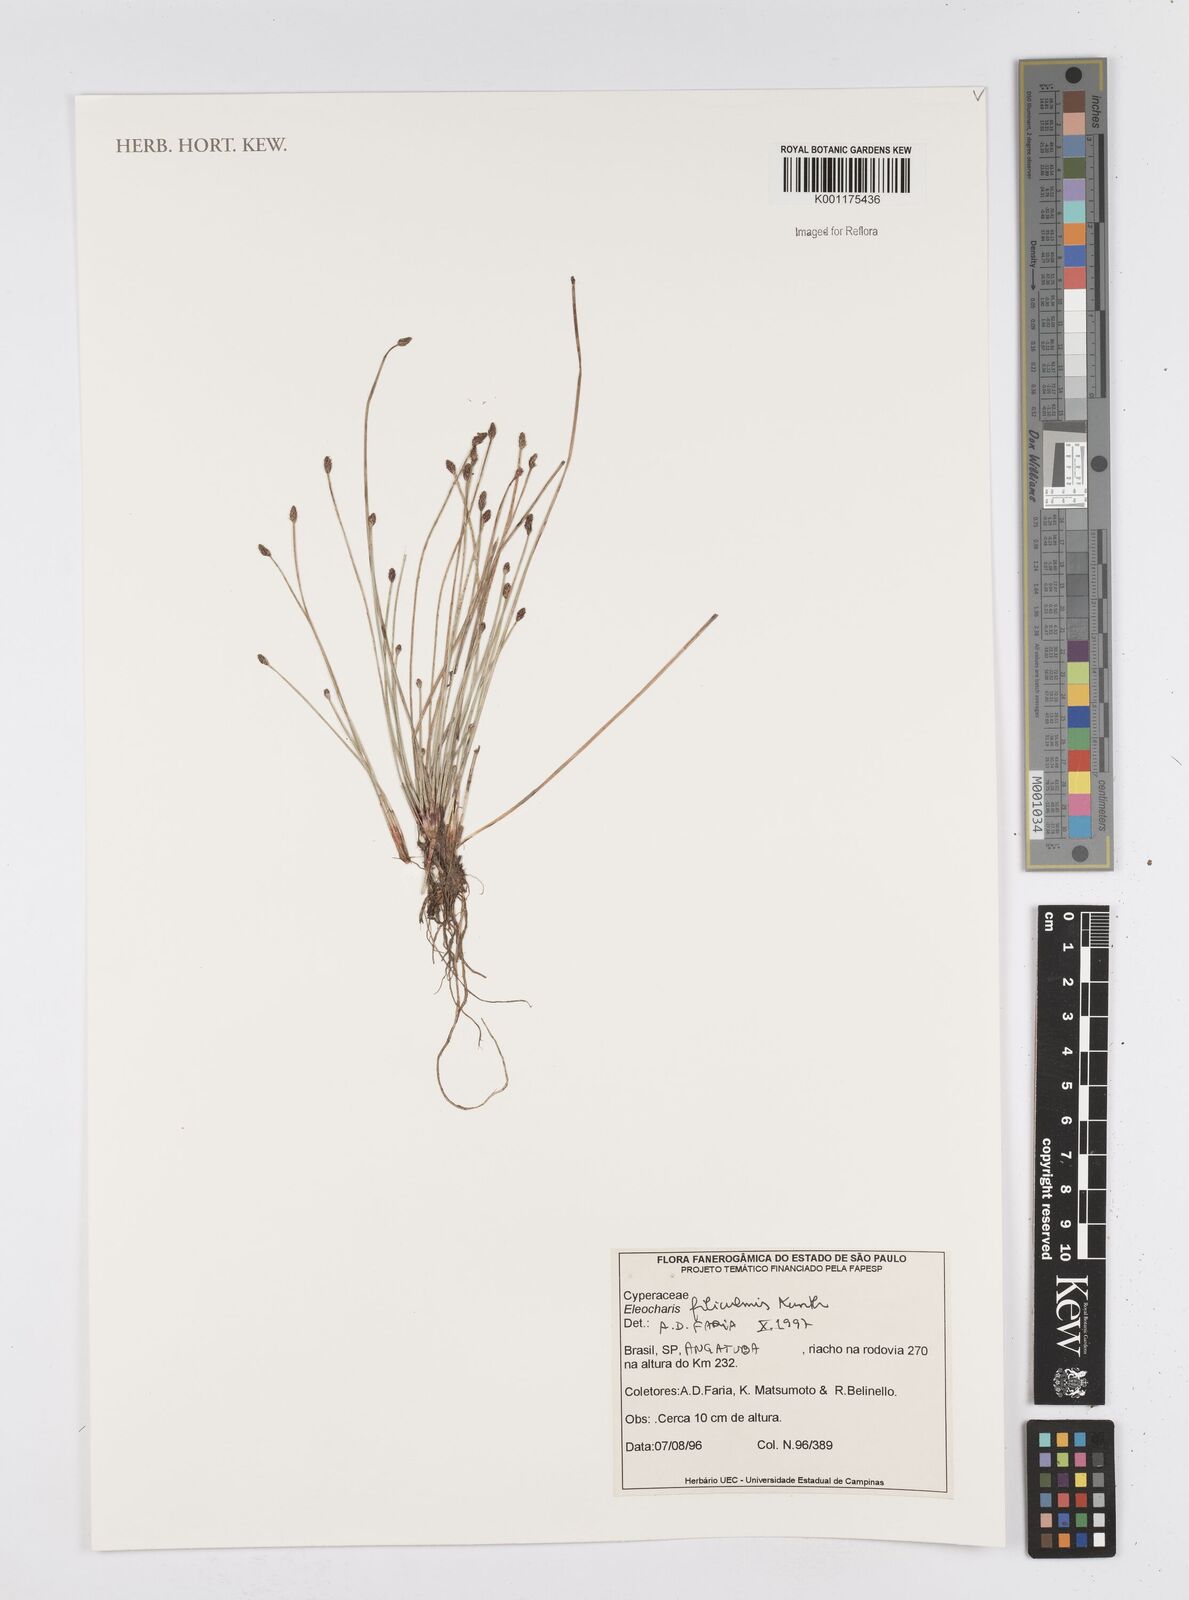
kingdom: Plantae
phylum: Tracheophyta
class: Liliopsida
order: Poales
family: Cyperaceae
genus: Eleocharis
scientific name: Eleocharis filiculmis
